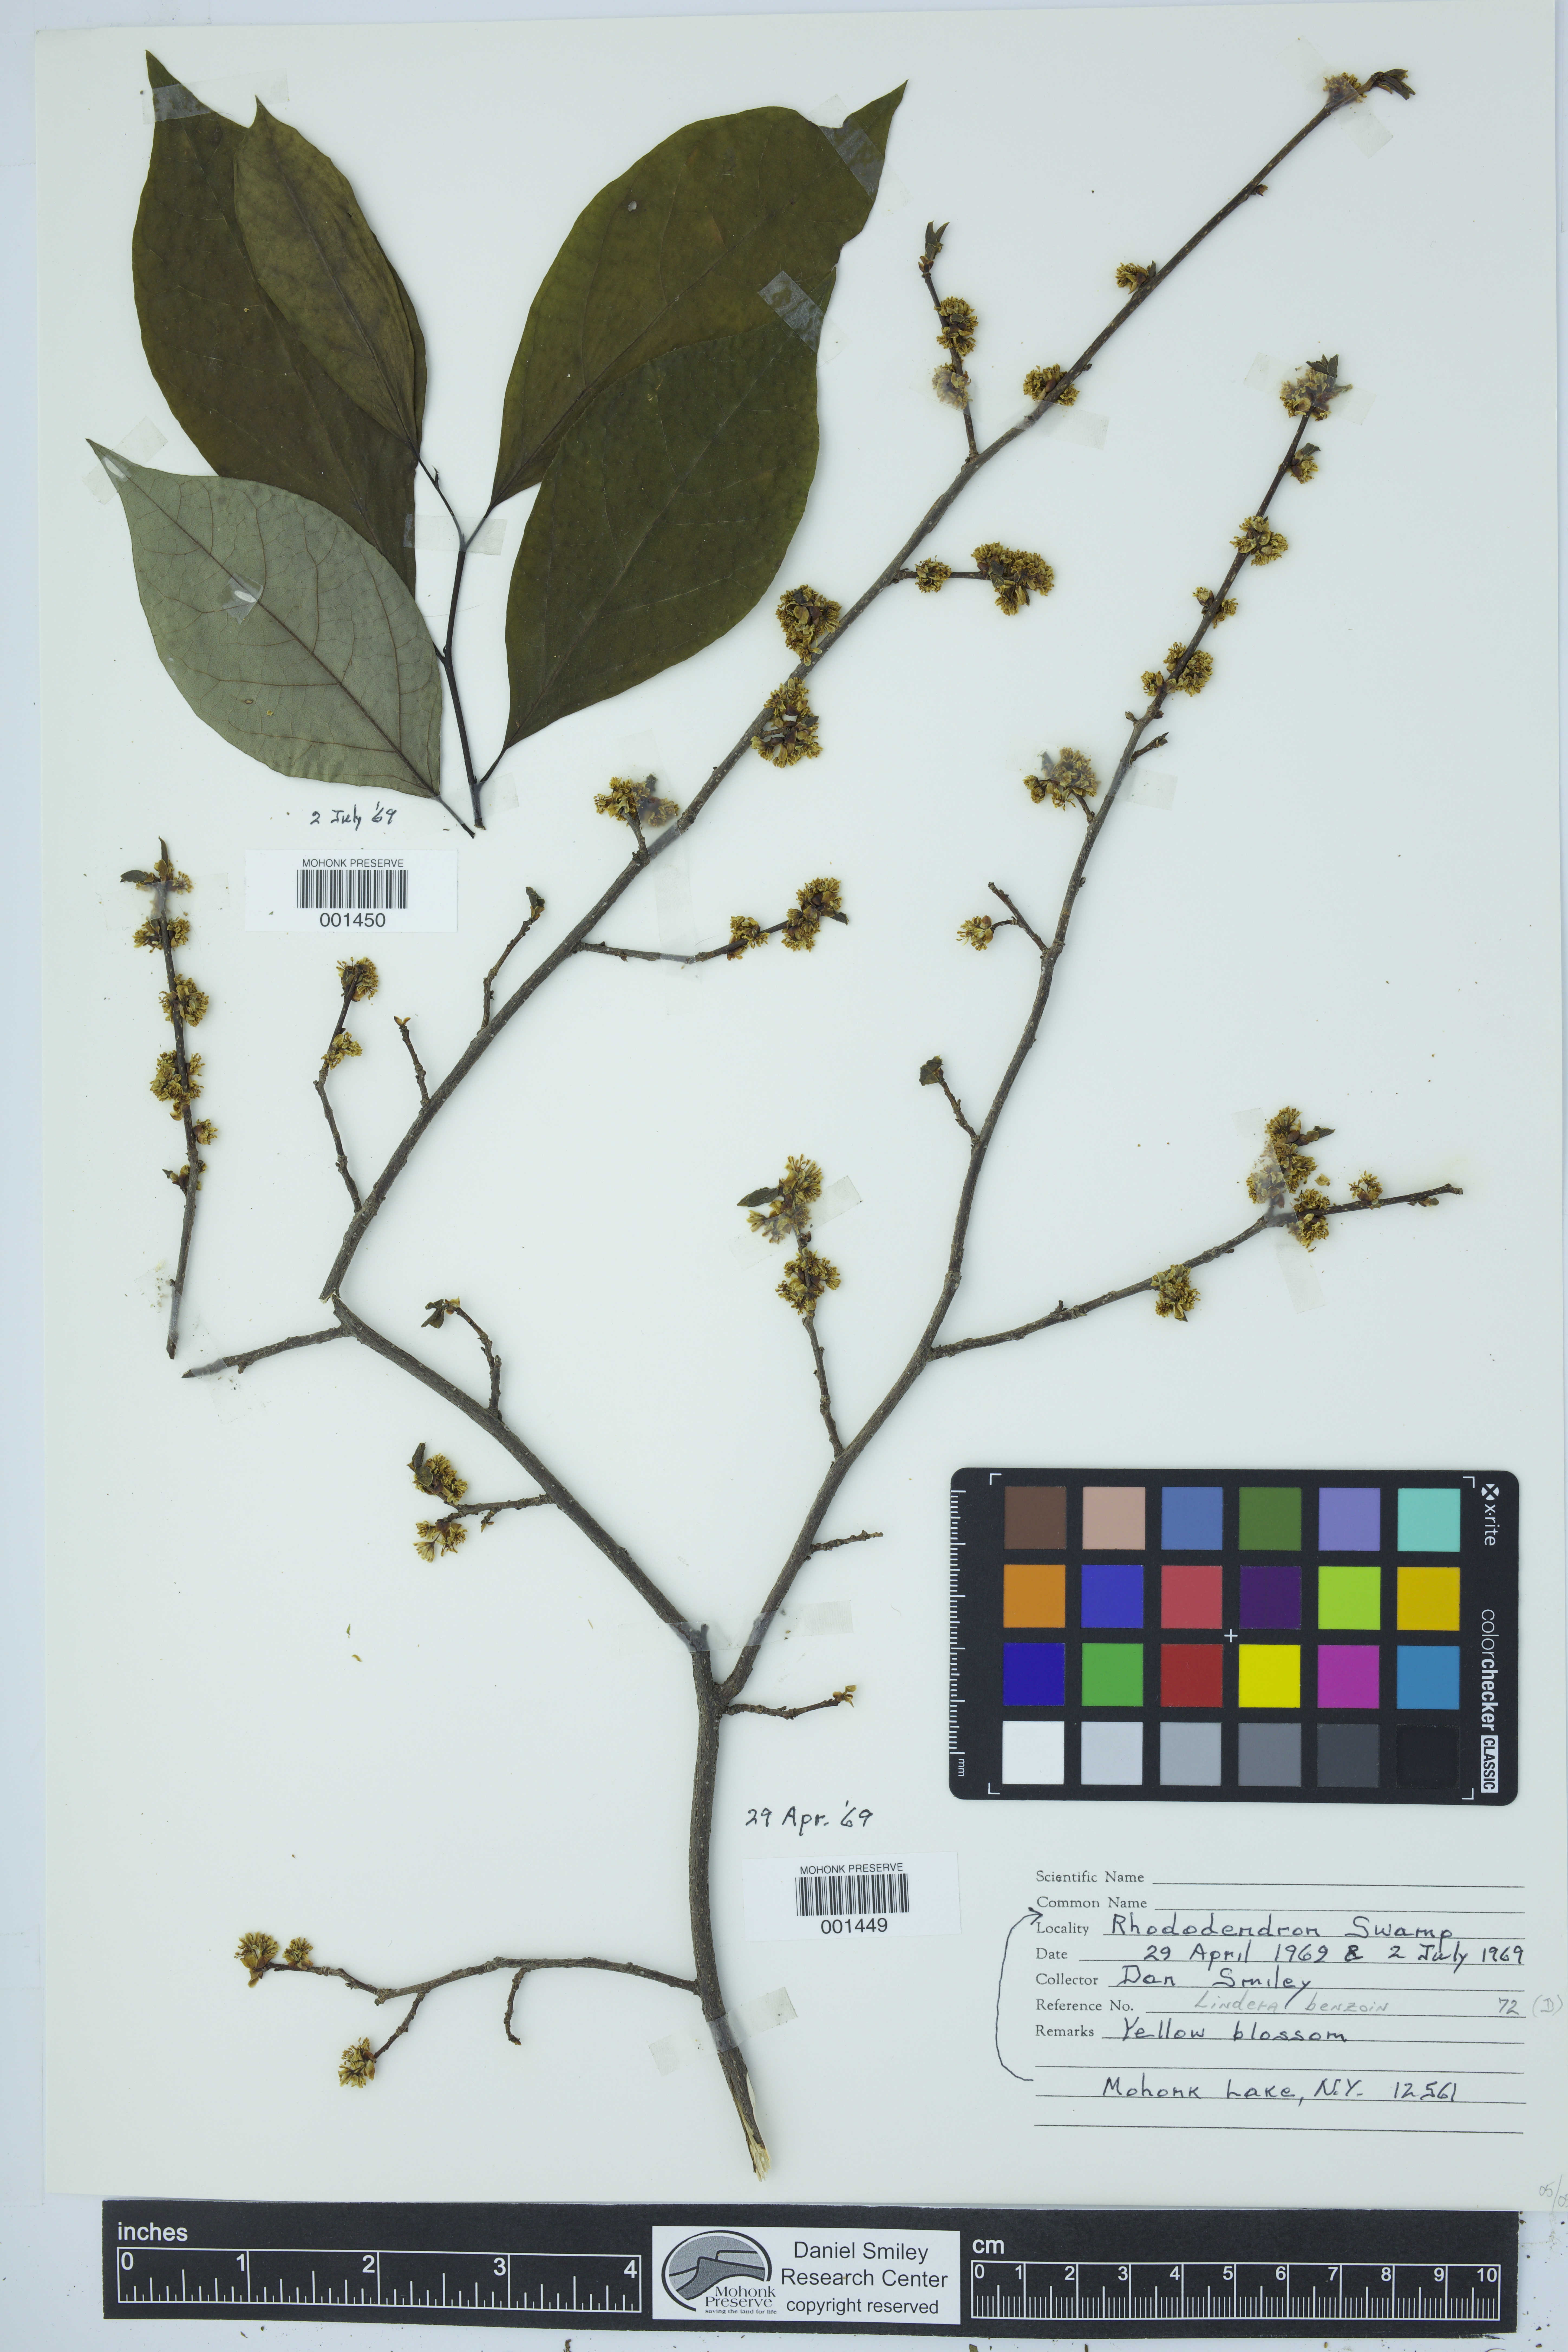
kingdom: Plantae
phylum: Tracheophyta
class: Magnoliopsida
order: Laurales
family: Lauraceae
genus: Lindera
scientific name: Lindera benzoin
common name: Spicebush
